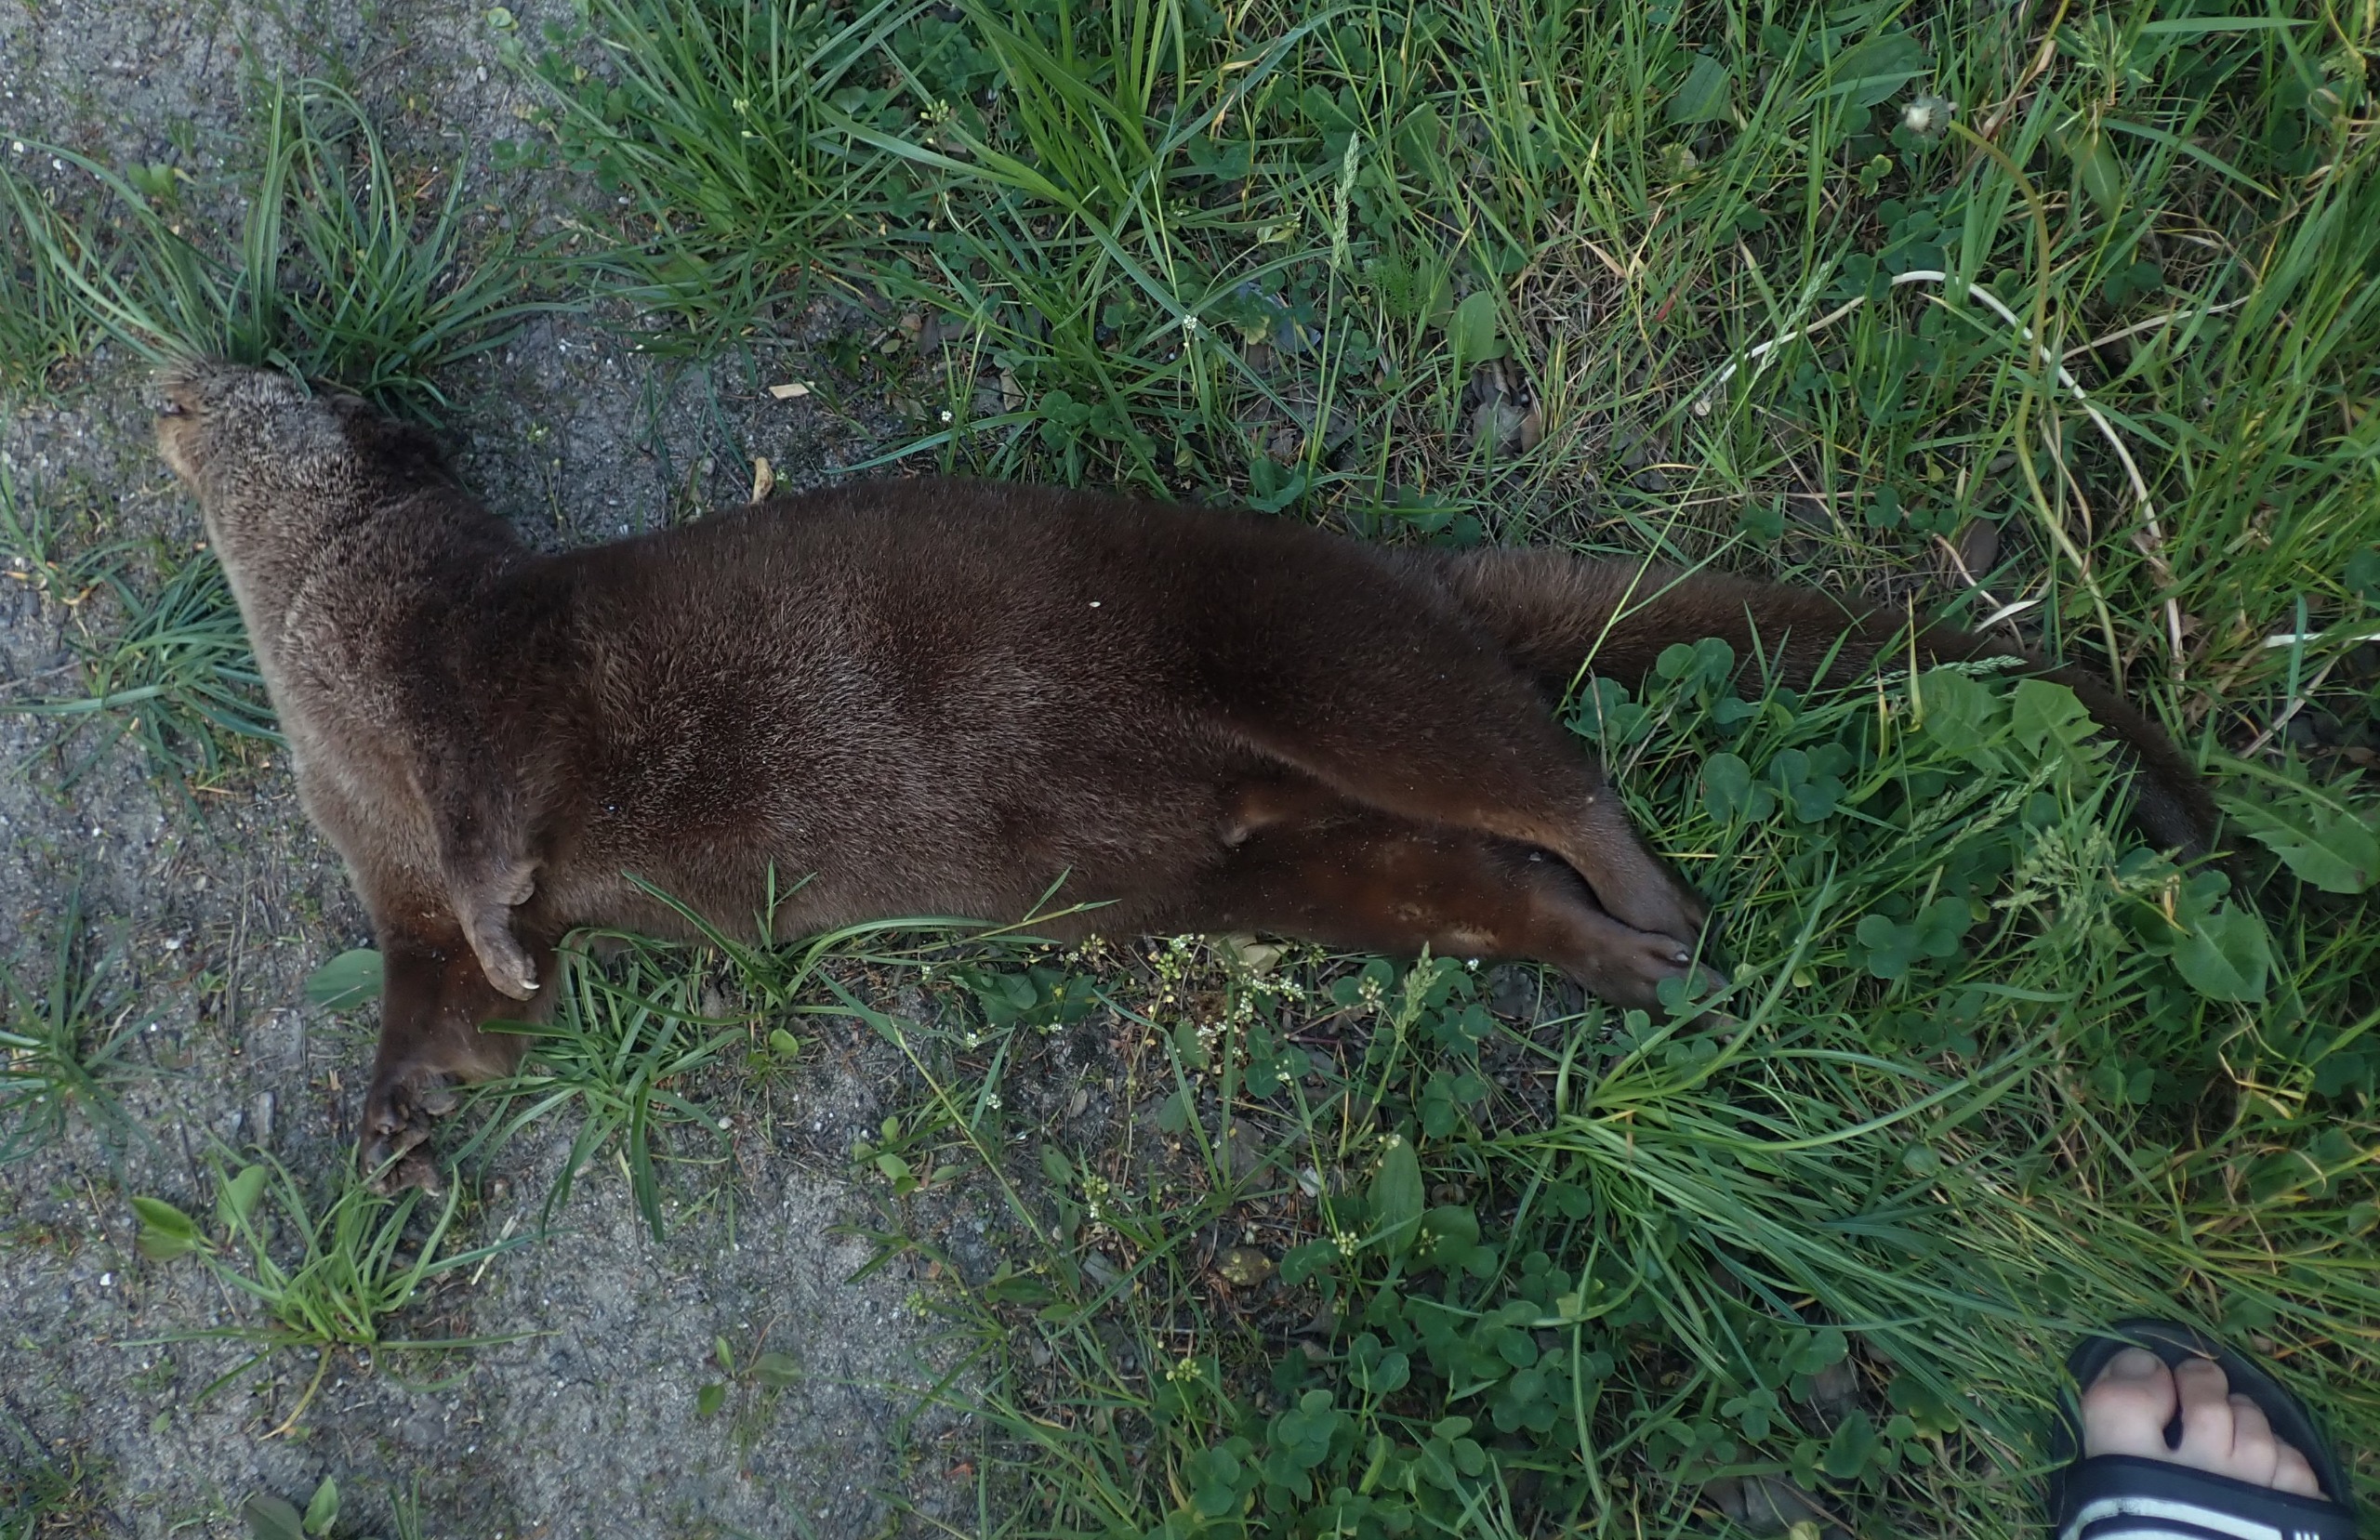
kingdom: Animalia
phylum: Chordata
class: Mammalia
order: Carnivora
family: Mustelidae
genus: Lutra
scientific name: Lutra lutra
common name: Odder
